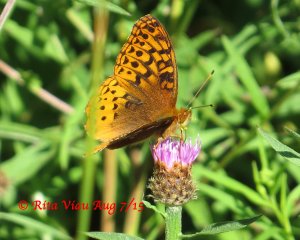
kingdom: Animalia
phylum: Arthropoda
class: Insecta
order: Lepidoptera
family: Nymphalidae
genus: Speyeria
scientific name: Speyeria cybele
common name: Great Spangled Fritillary
